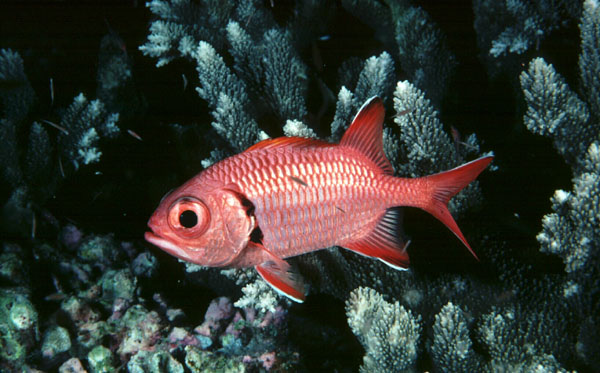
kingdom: Animalia
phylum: Chordata
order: Beryciformes
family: Holocentridae
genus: Myripristis
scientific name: Myripristis berndti
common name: Bigscale soldierfish
